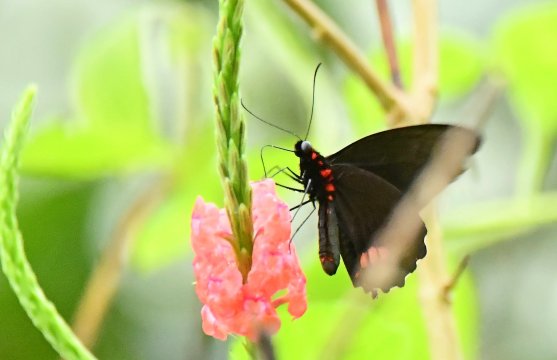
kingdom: Animalia
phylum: Arthropoda
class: Insecta
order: Lepidoptera
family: Papilionidae
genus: Parides
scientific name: Parides sesostris
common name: Emerald-patched Cattleheart
